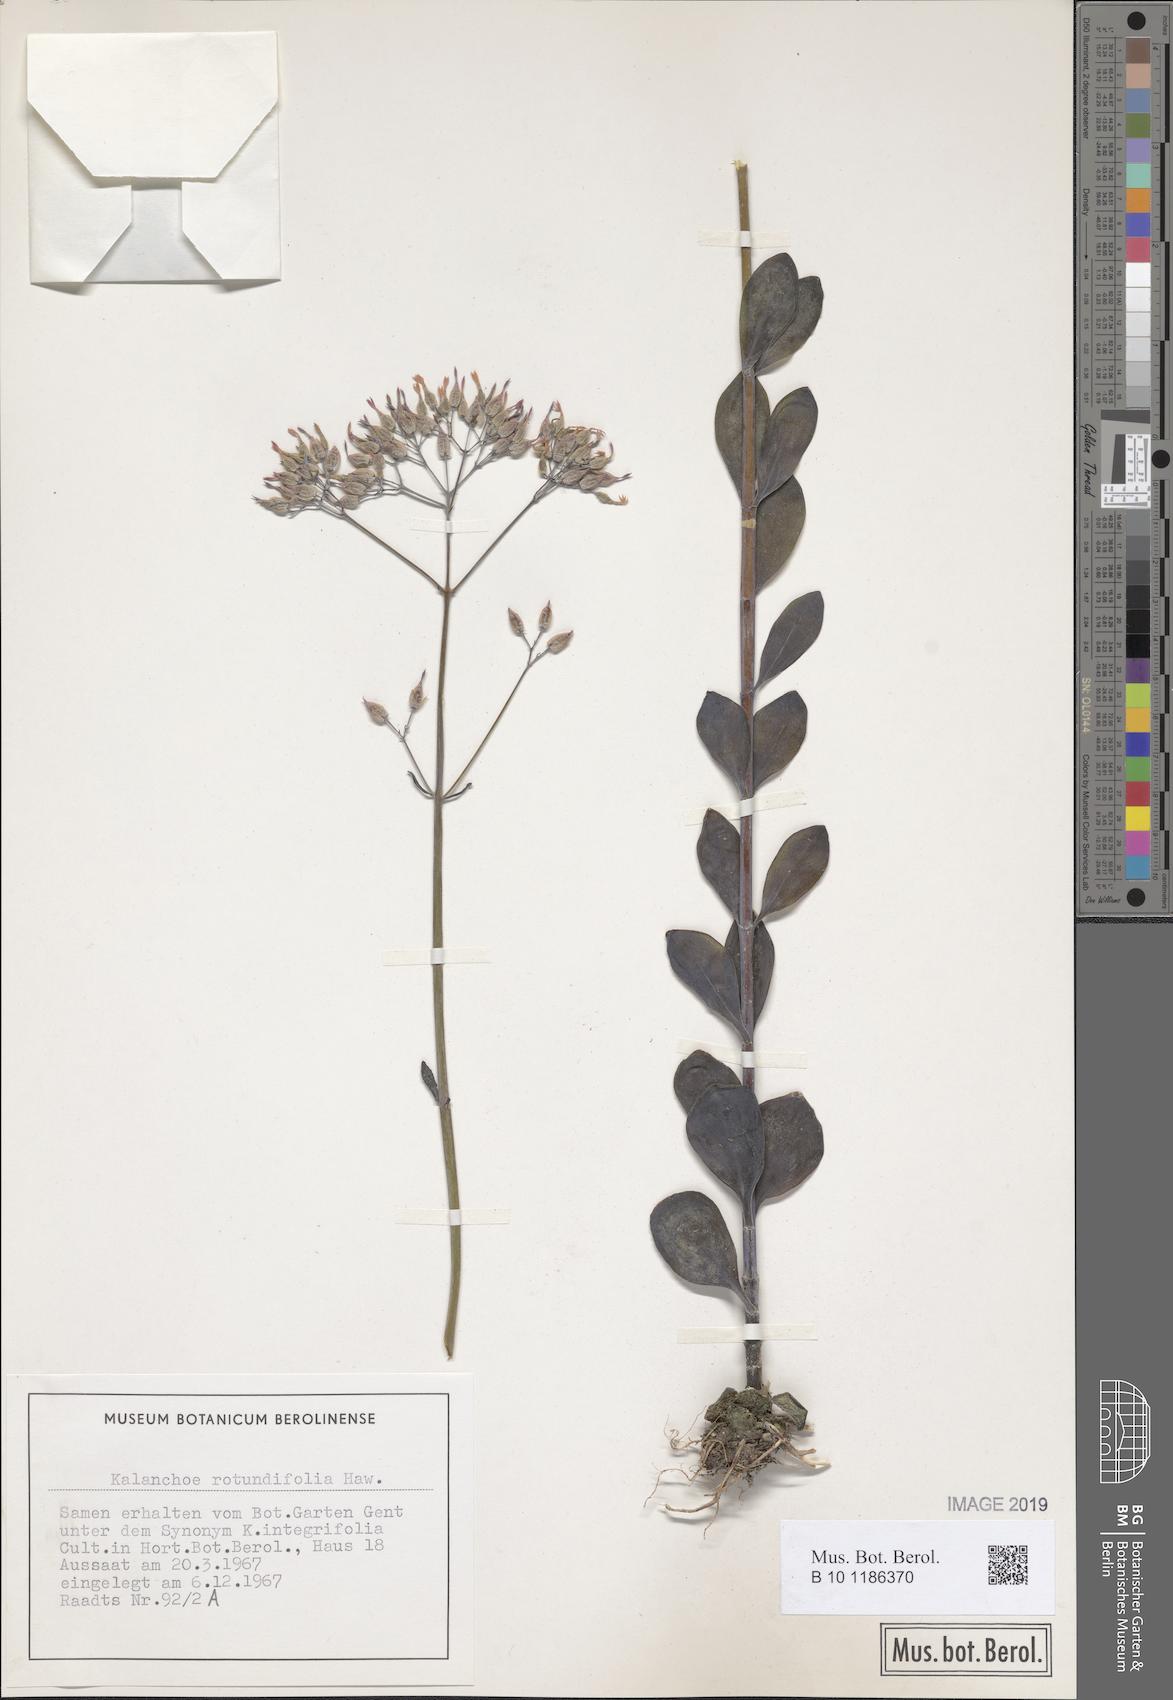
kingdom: Plantae
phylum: Tracheophyta
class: Magnoliopsida
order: Saxifragales
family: Crassulaceae
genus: Kalanchoe
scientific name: Kalanchoe rotundifolia
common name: Common kalanchoe
